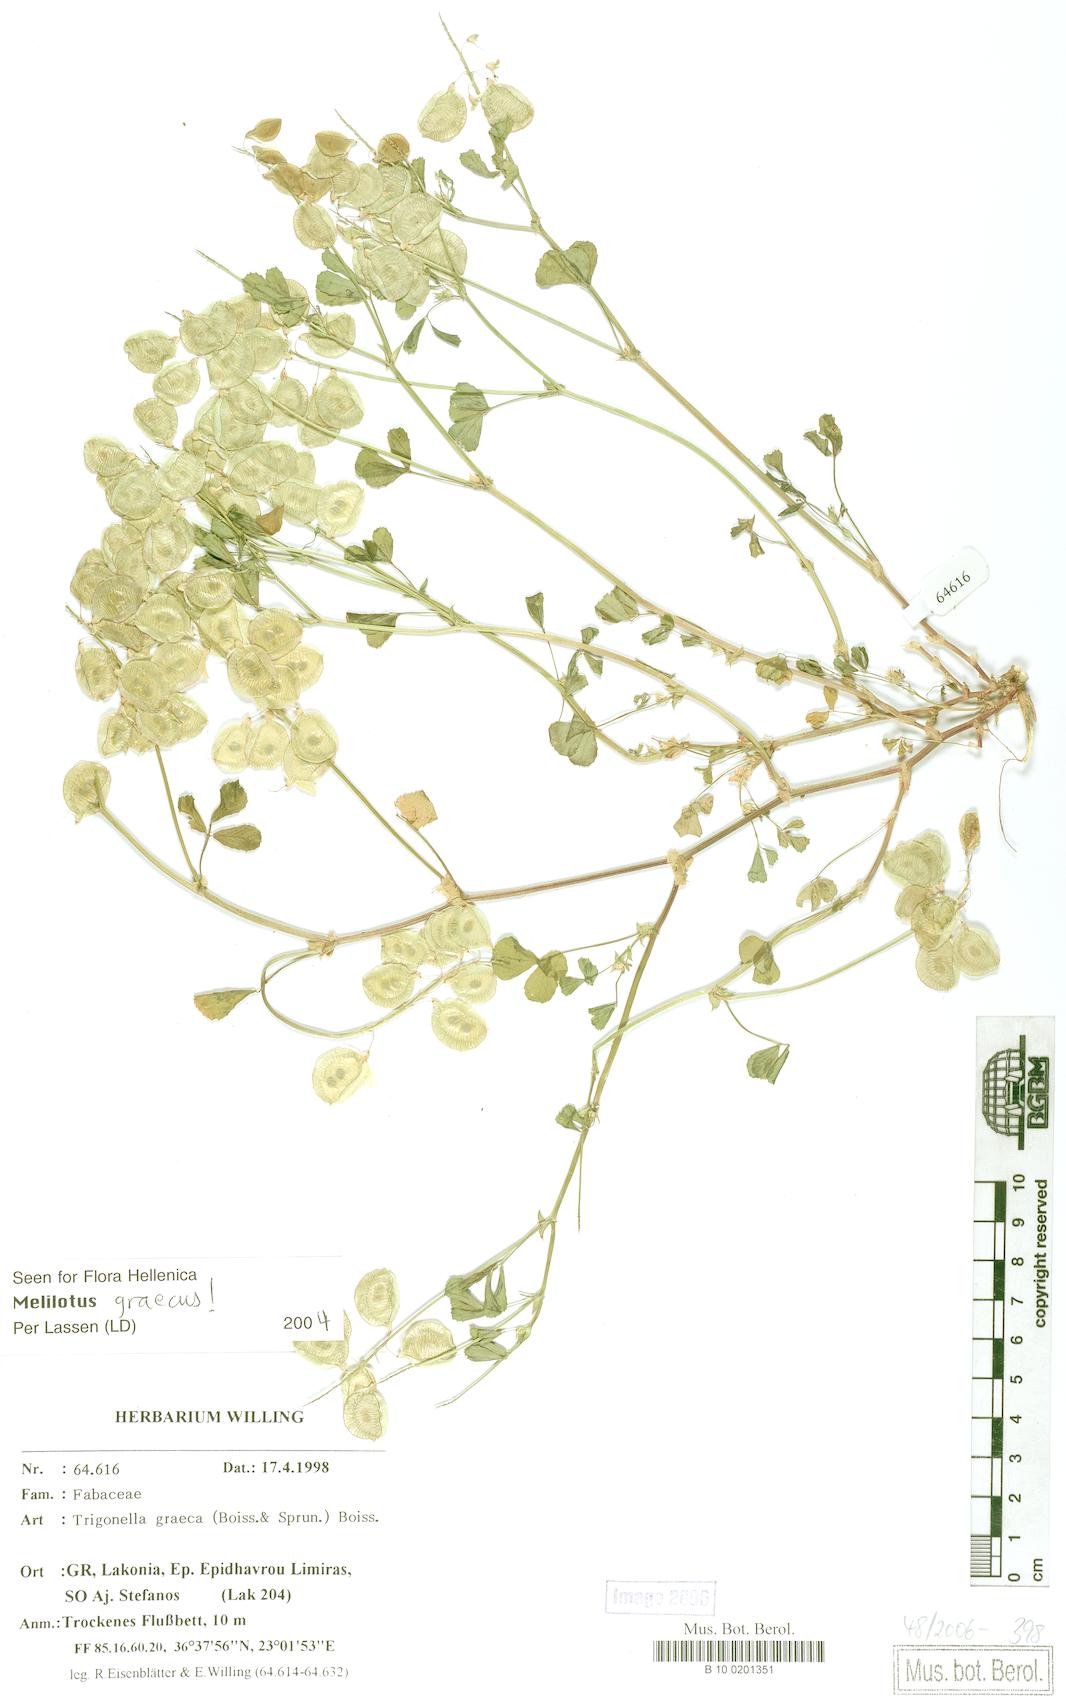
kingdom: Plantae
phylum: Tracheophyta
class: Magnoliopsida
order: Fabales
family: Fabaceae
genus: Trigonella
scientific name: Trigonella graeca
